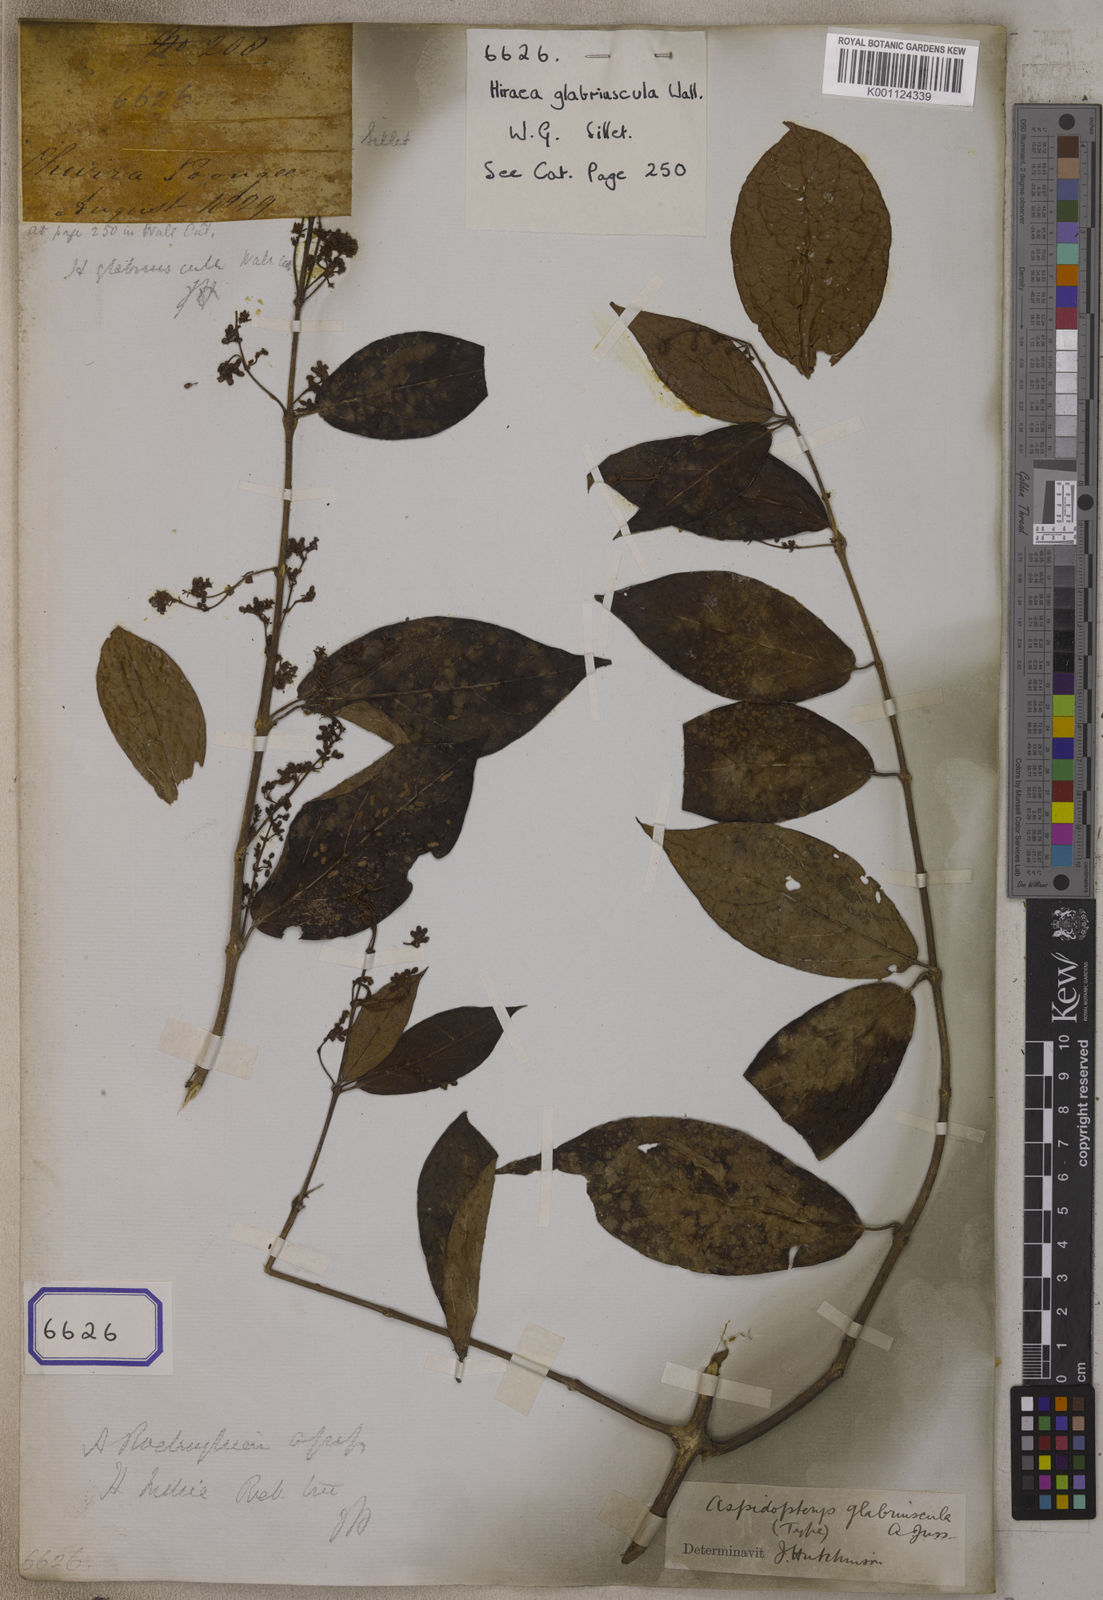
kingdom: Plantae
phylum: Tracheophyta
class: Magnoliopsida
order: Malpighiales
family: Malpighiaceae
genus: Aspidopterys
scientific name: Aspidopterys glabriuscula
